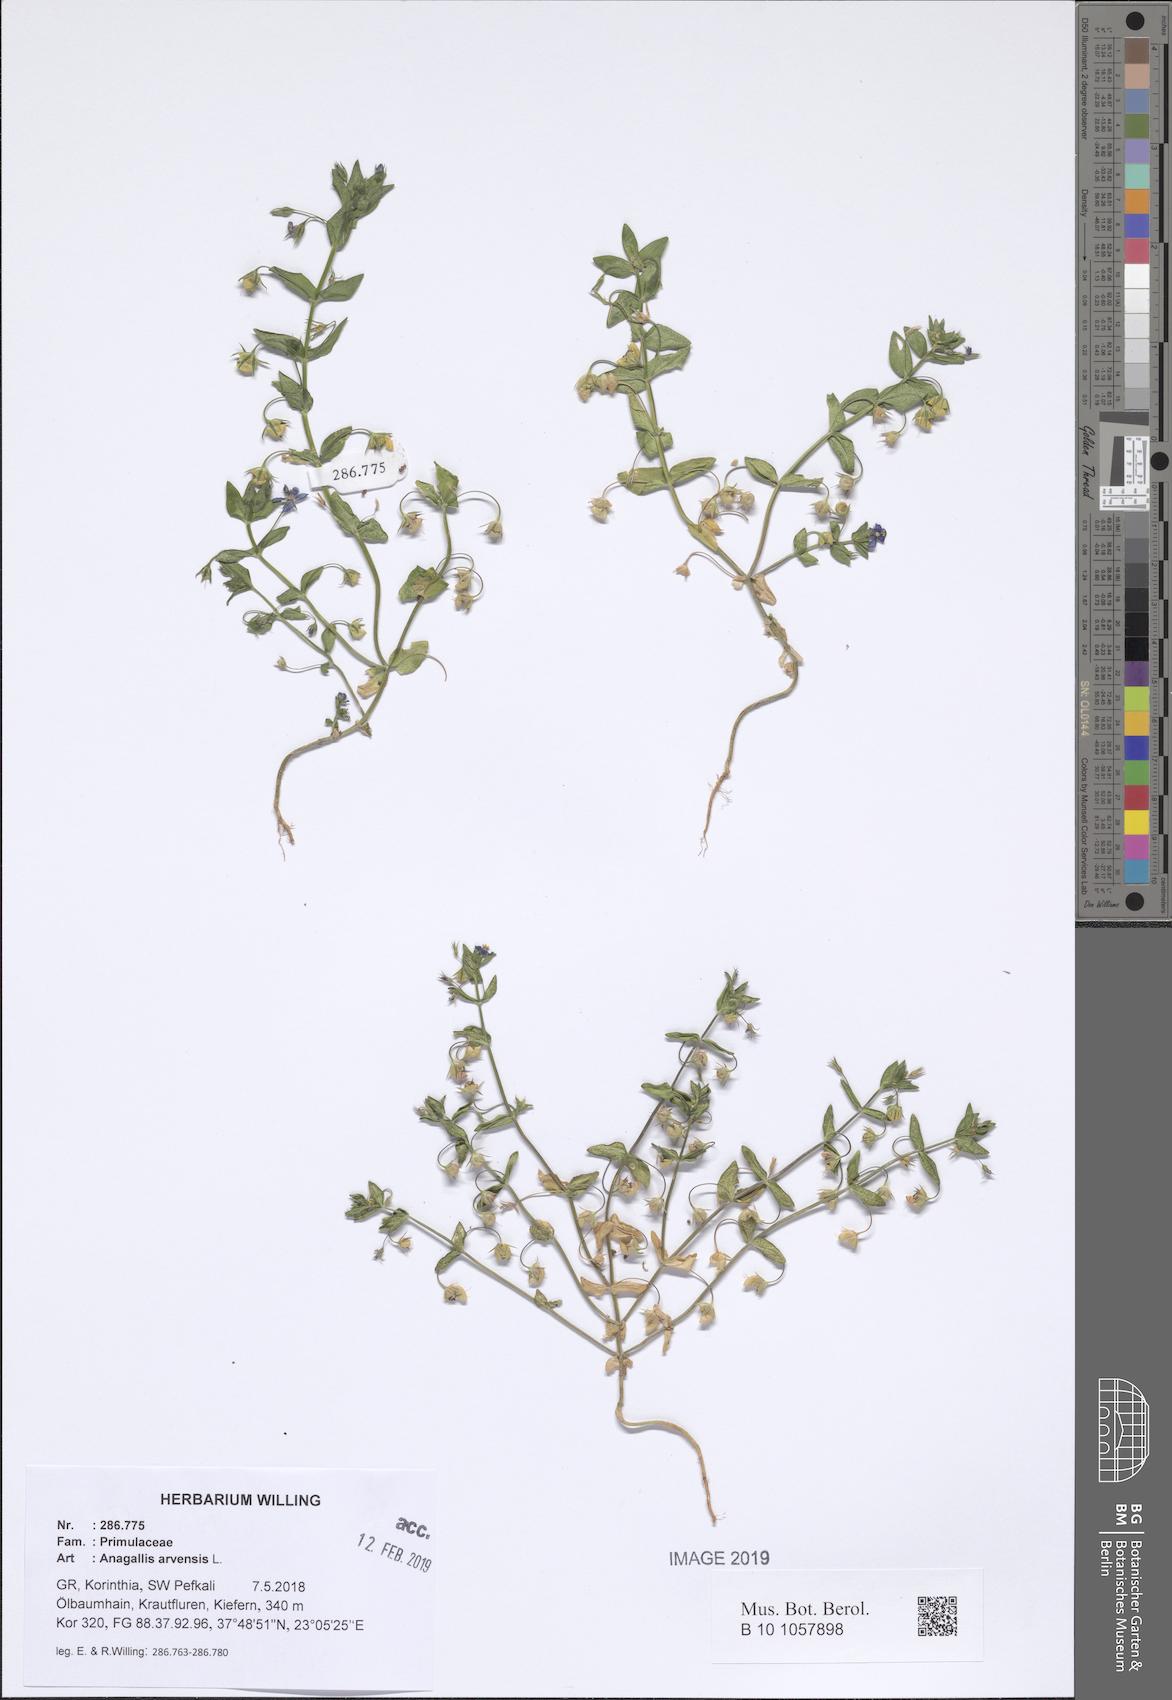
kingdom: Plantae
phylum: Tracheophyta
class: Magnoliopsida
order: Ericales
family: Primulaceae
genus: Lysimachia
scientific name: Lysimachia arvensis
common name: Scarlet pimpernel
